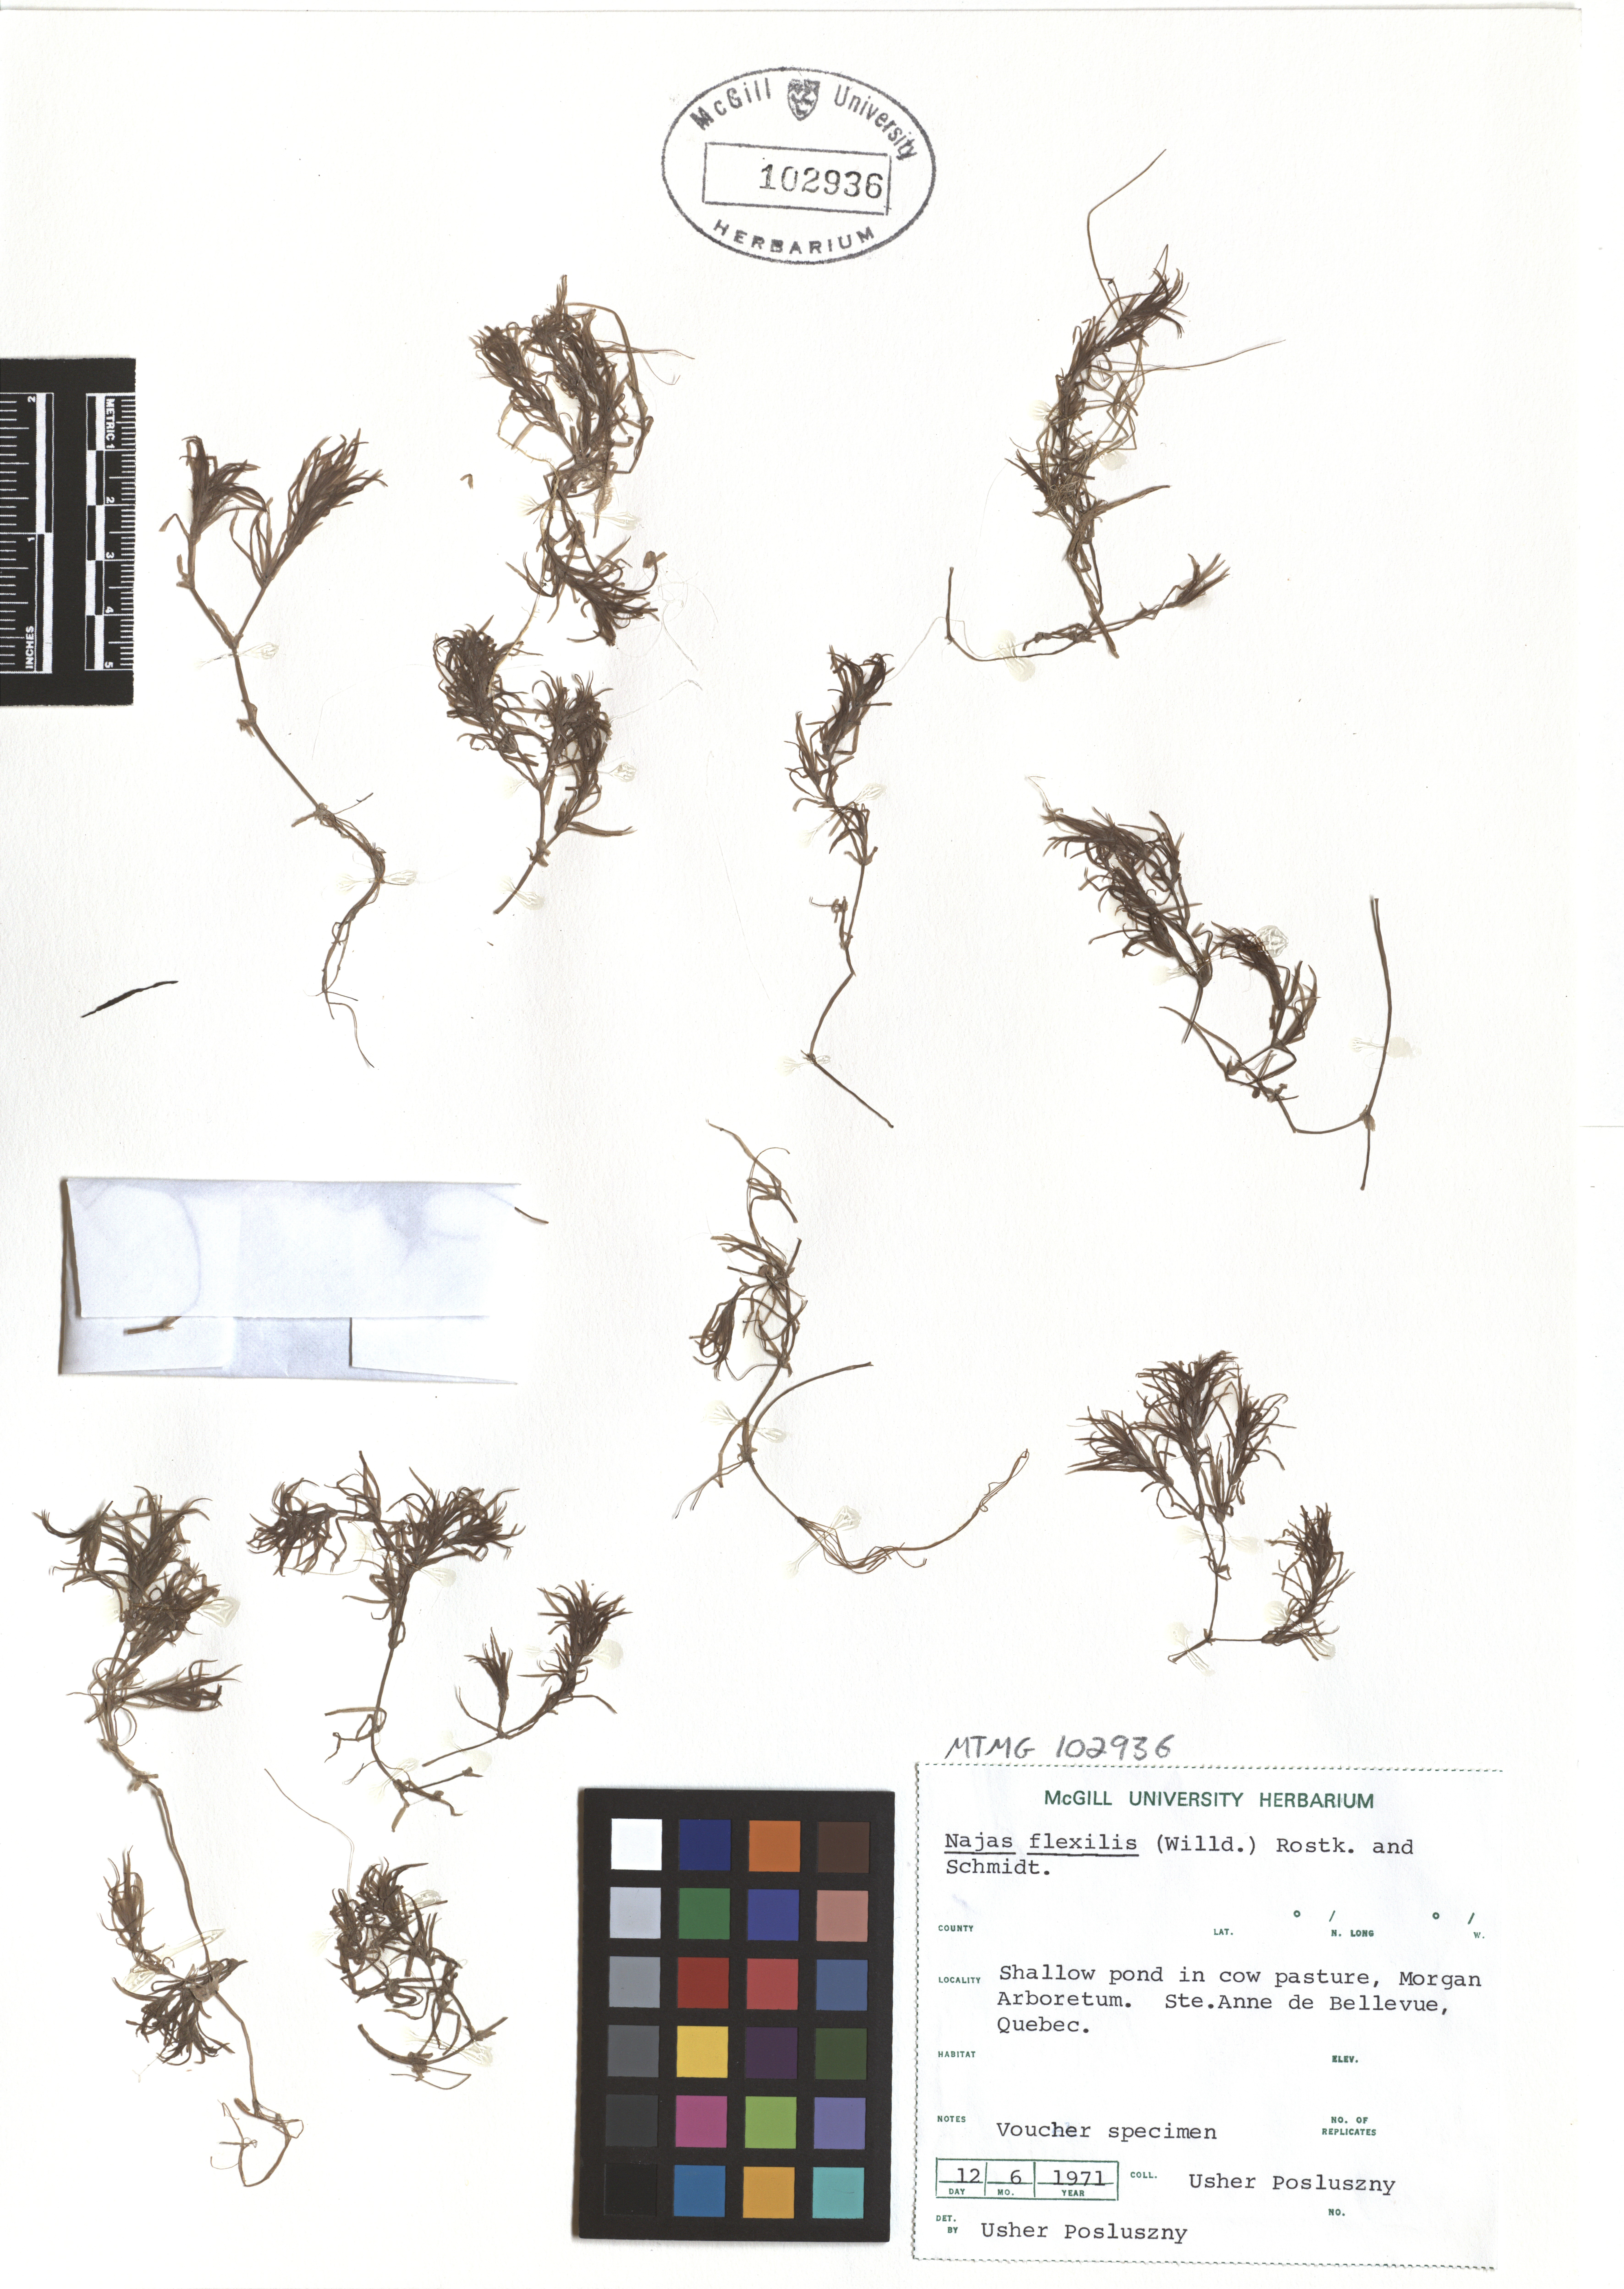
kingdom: Plantae
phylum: Tracheophyta
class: Liliopsida
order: Alismatales
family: Hydrocharitaceae
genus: Najas
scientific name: Najas guadalupensis
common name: Southern naiad
